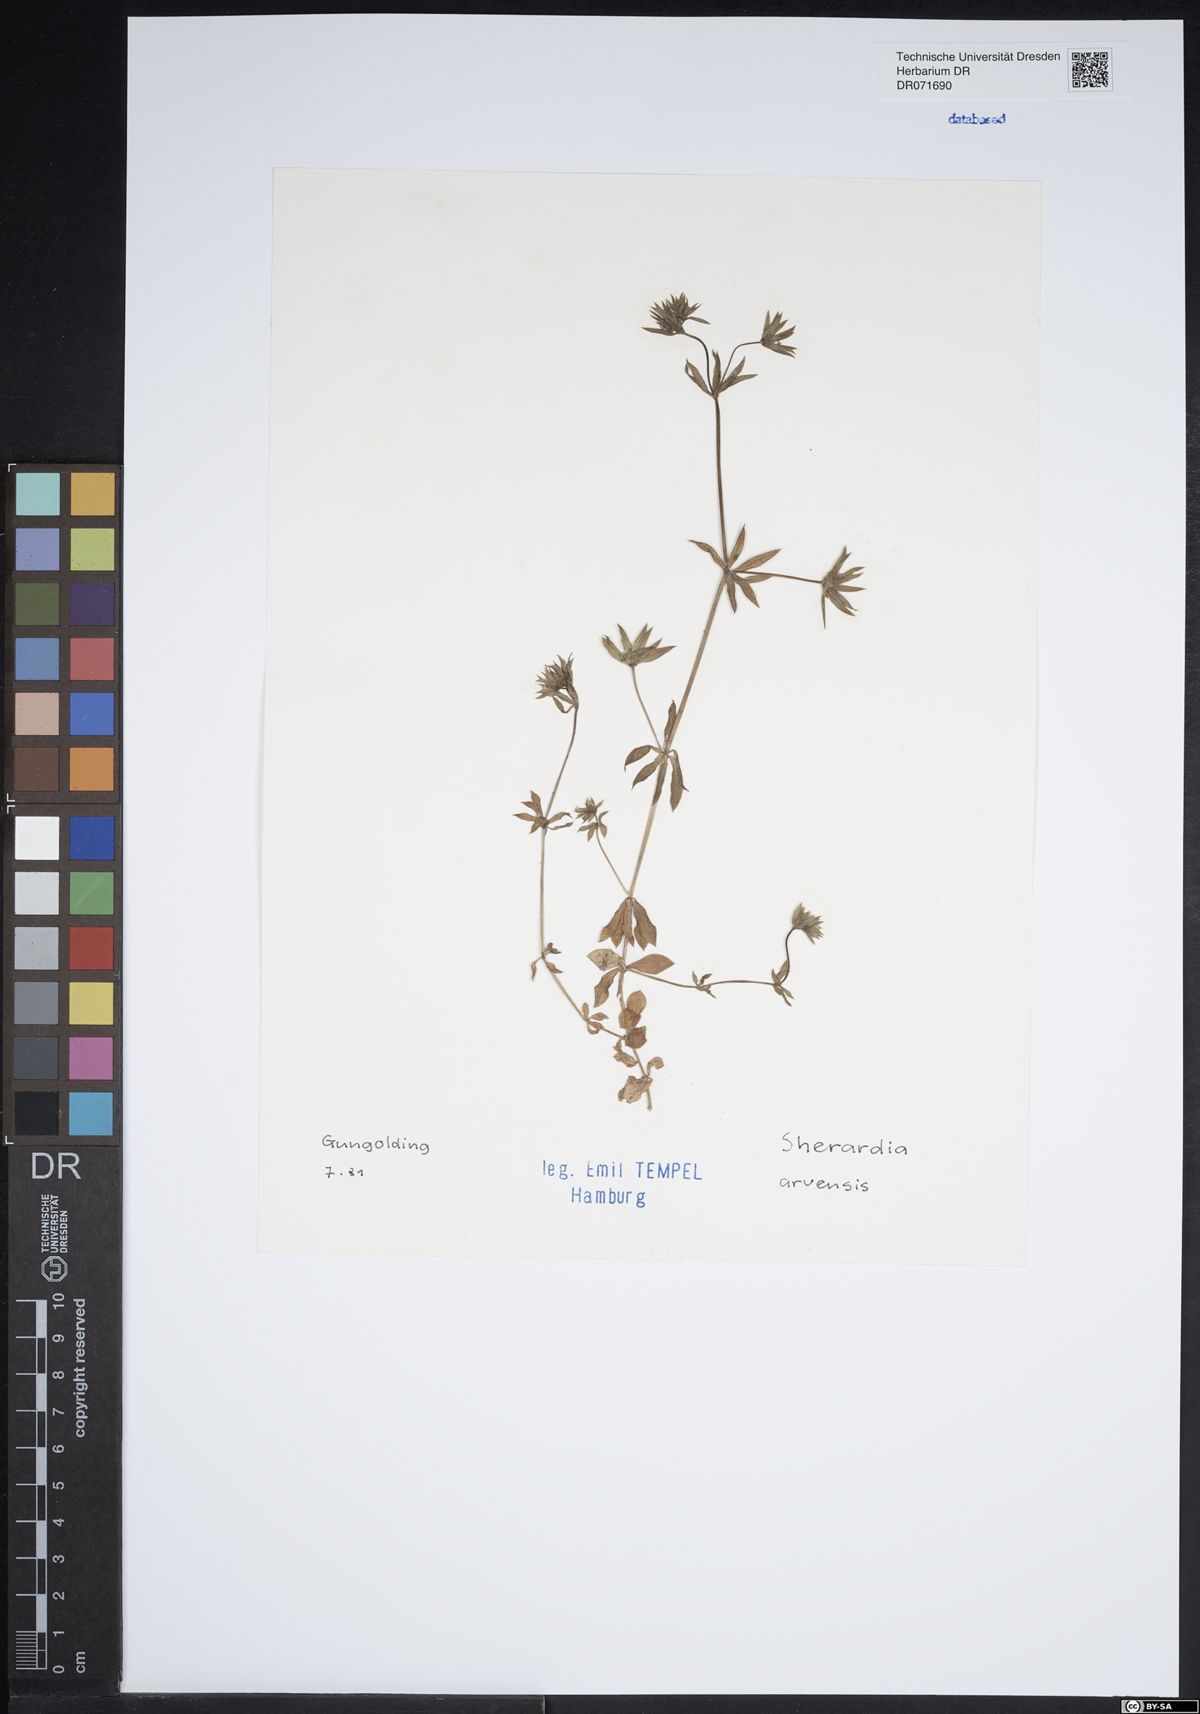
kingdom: Plantae
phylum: Tracheophyta
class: Magnoliopsida
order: Gentianales
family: Rubiaceae
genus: Sherardia
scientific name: Sherardia arvensis
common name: Field madder
